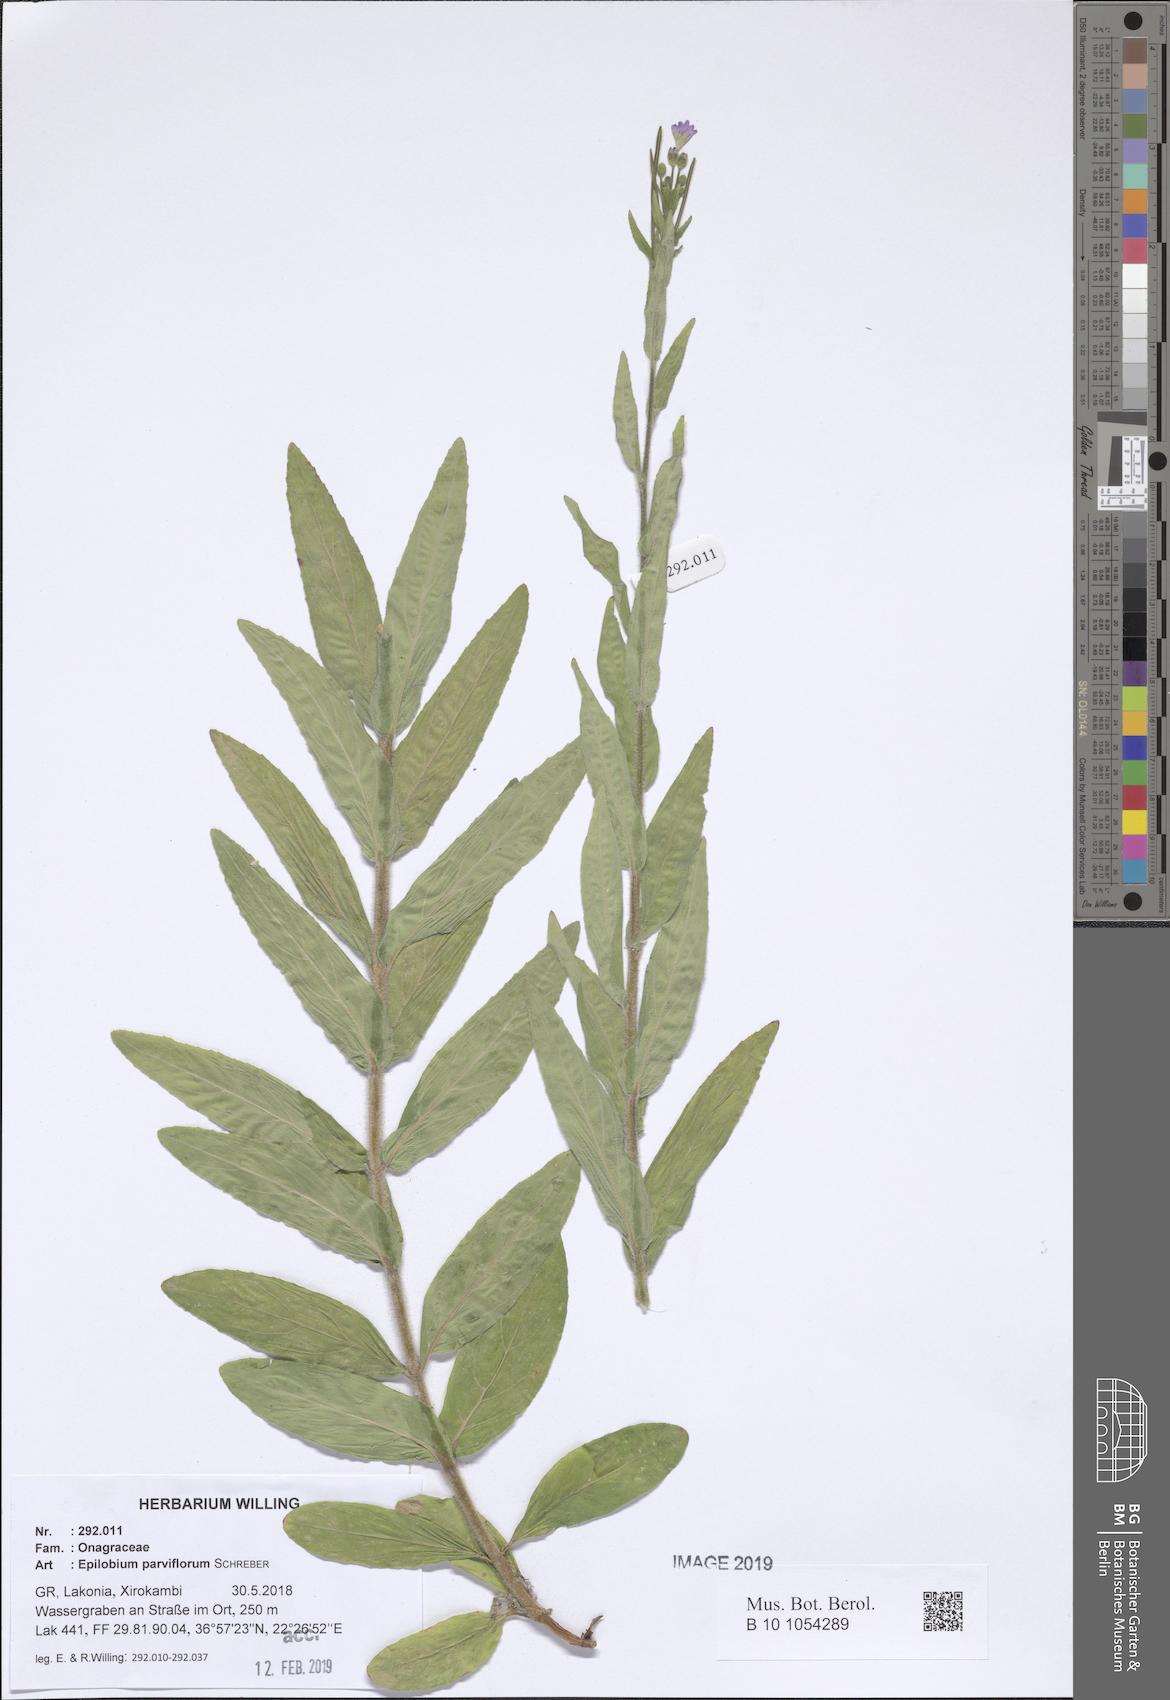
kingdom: Plantae
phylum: Tracheophyta
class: Magnoliopsida
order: Myrtales
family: Onagraceae
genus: Epilobium
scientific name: Epilobium parviflorum
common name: Hoary willowherb
